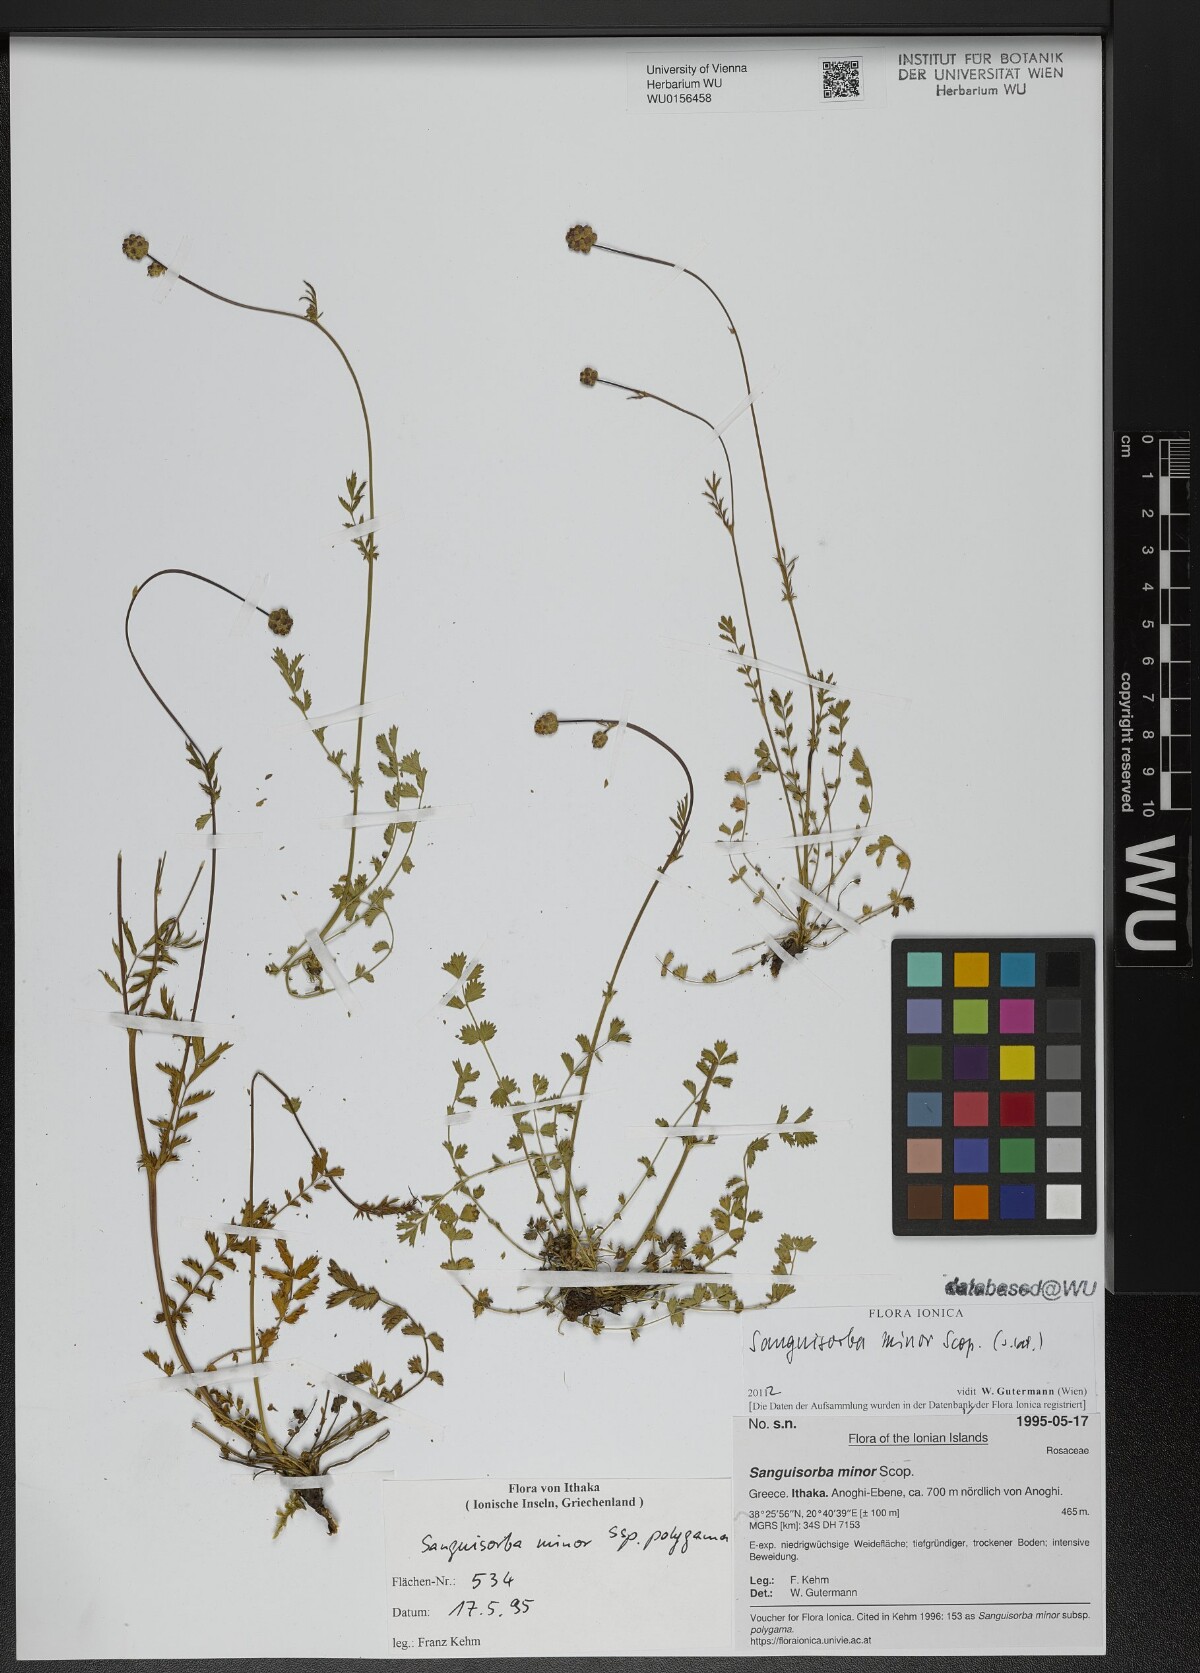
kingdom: Plantae
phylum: Tracheophyta
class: Magnoliopsida
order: Rosales
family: Rosaceae
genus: Poterium
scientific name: Poterium sanguisorba
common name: Salad burnet
